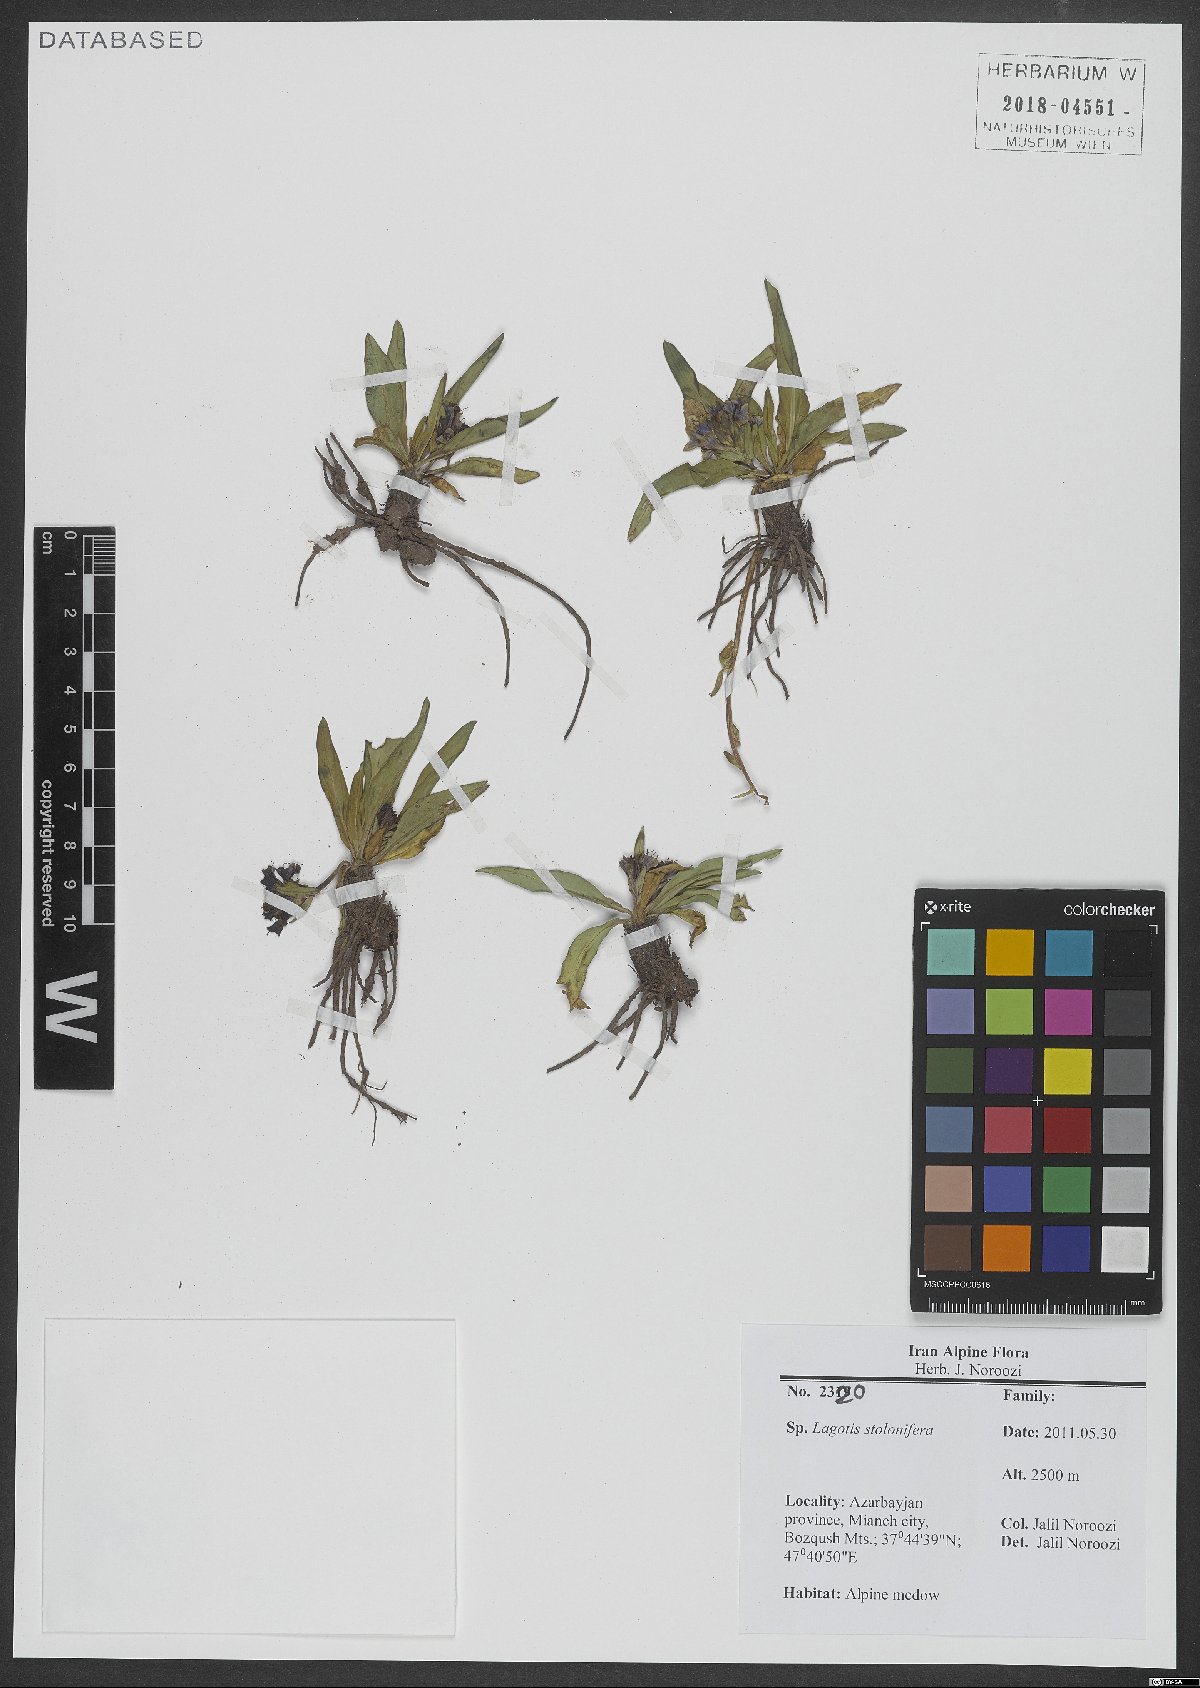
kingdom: Plantae
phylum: Tracheophyta
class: Magnoliopsida
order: Lamiales
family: Plantaginaceae
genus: Lagotis
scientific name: Lagotis stolonifera
